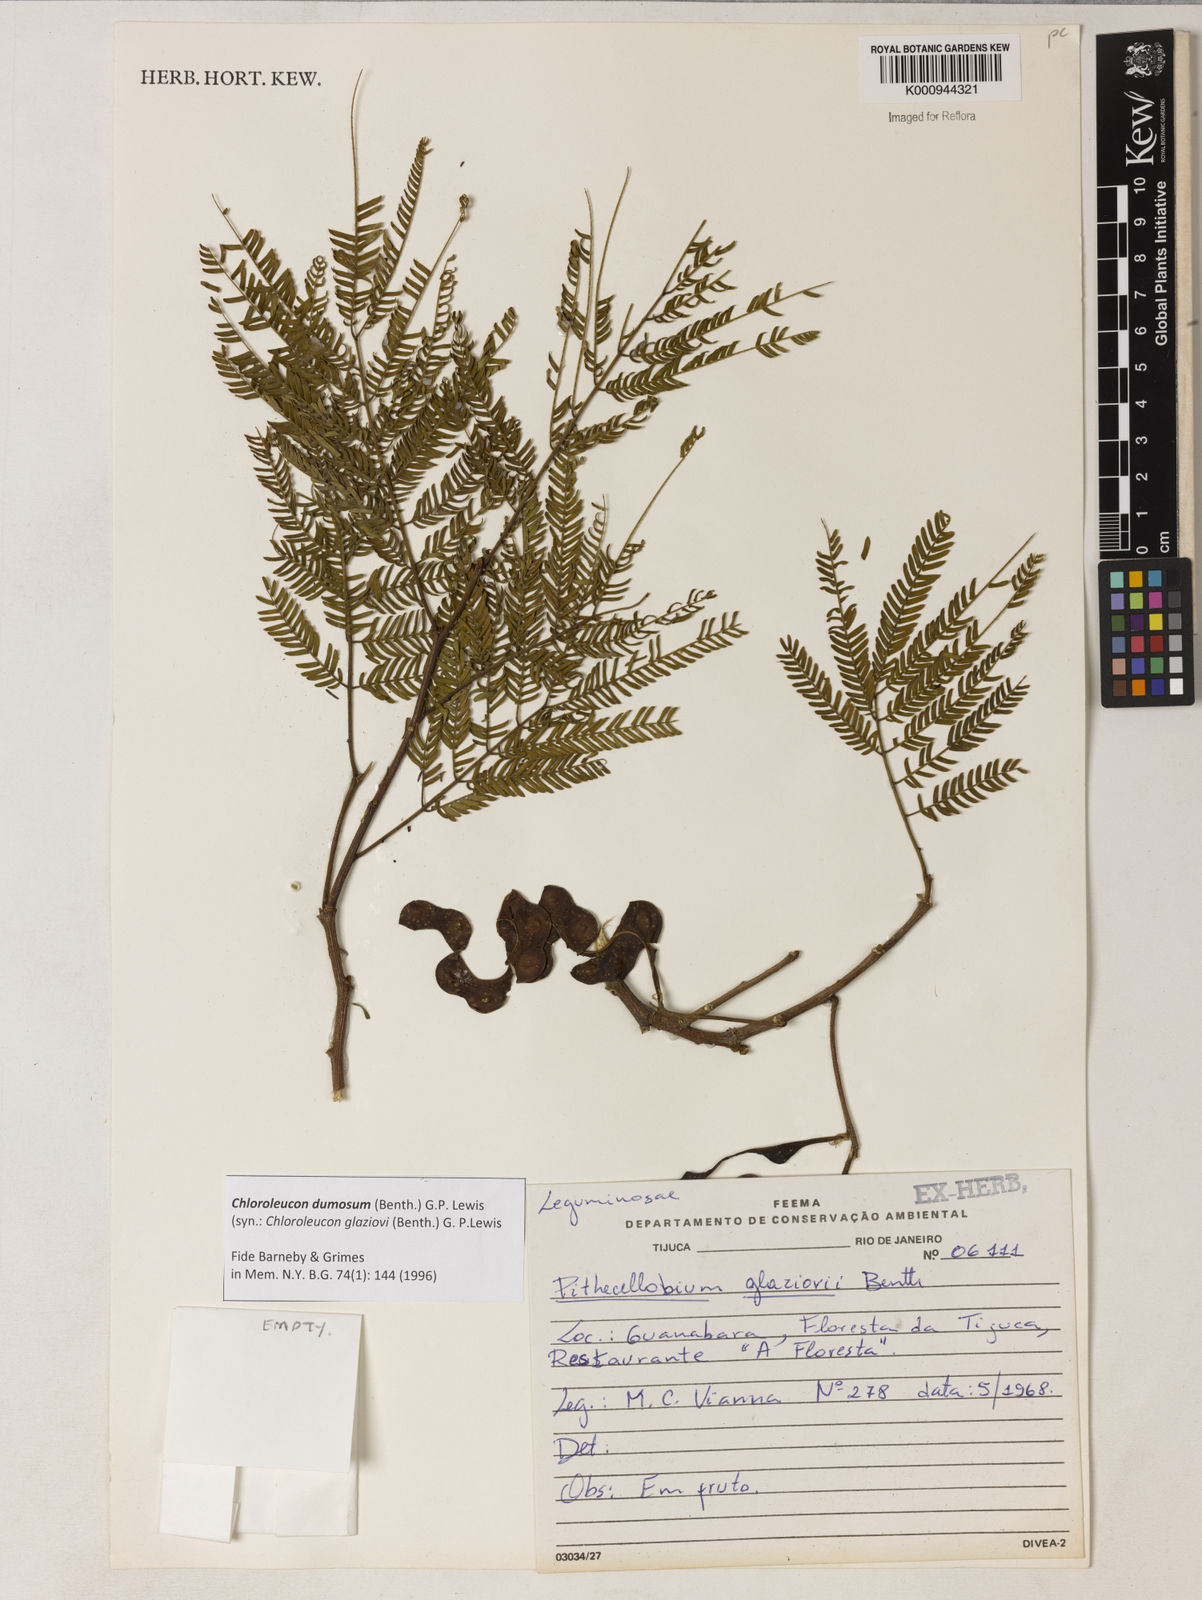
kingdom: Plantae
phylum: Tracheophyta
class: Magnoliopsida
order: Fabales
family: Fabaceae
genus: Inga
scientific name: Inga stenoptera
